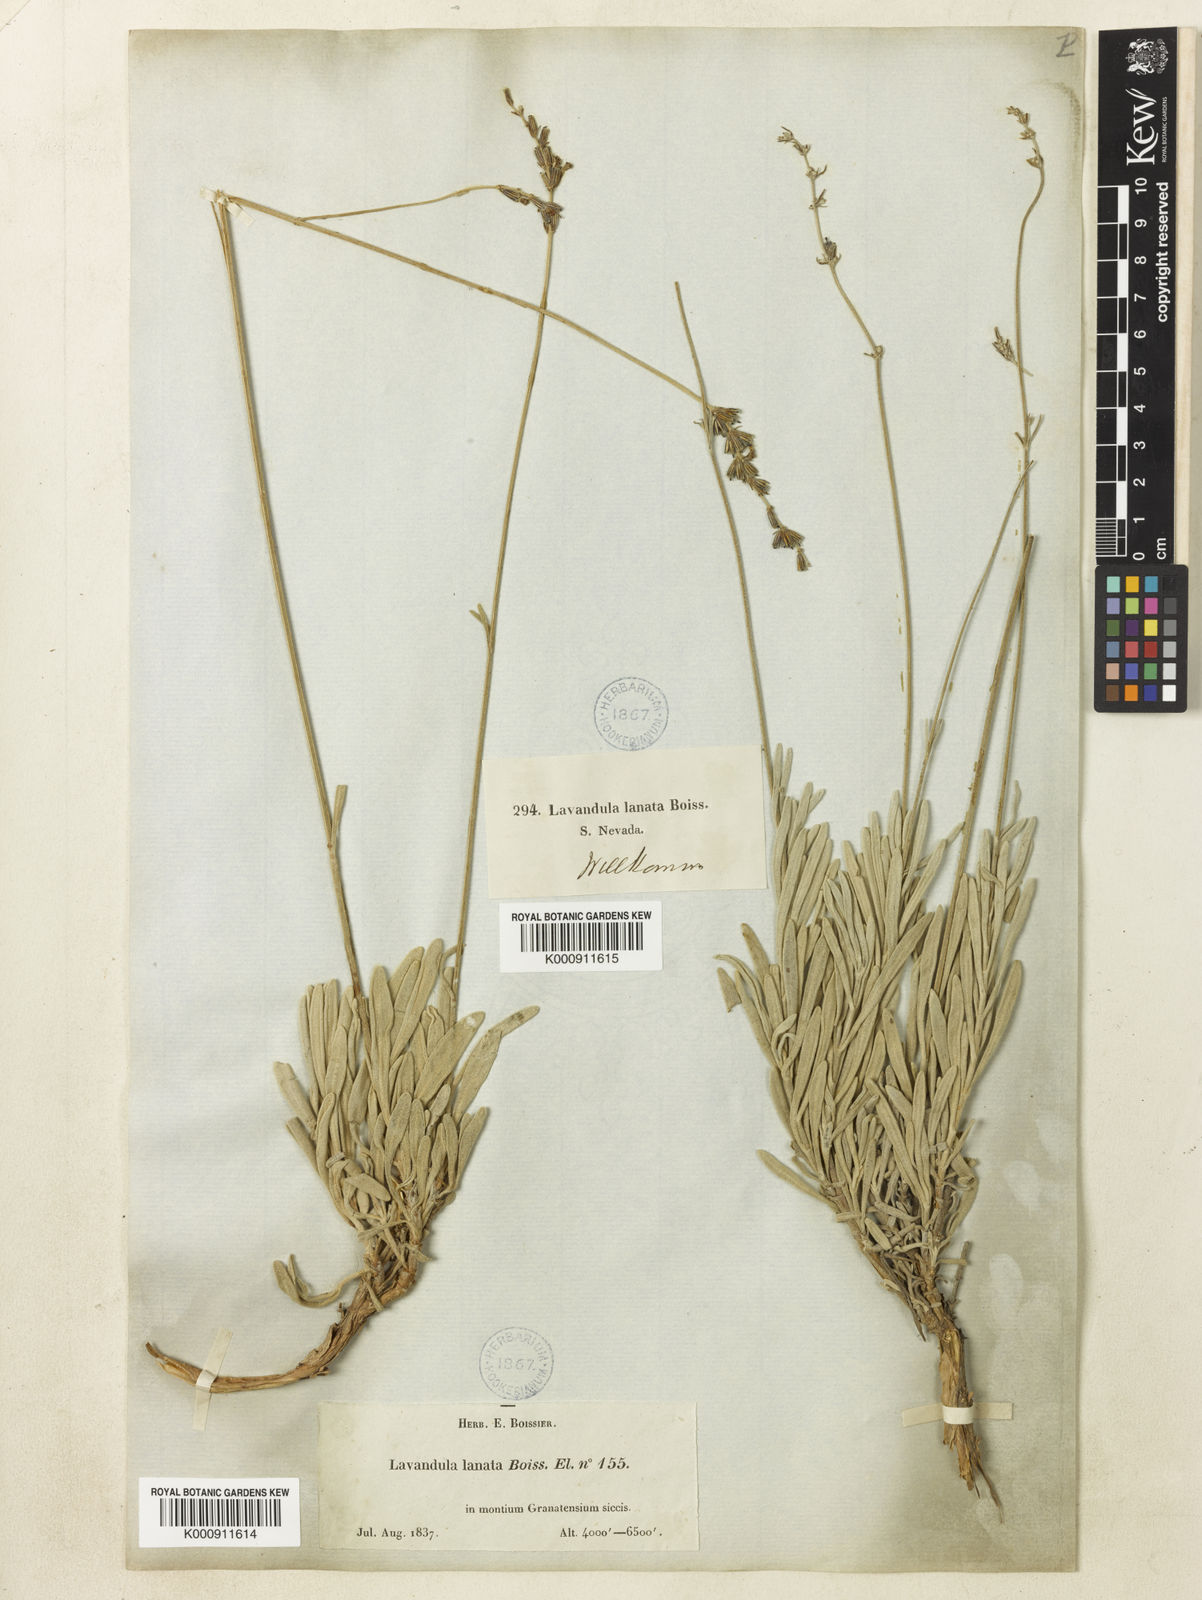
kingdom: Plantae
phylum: Tracheophyta
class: Magnoliopsida
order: Lamiales
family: Lamiaceae
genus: Lavandula
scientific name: Lavandula lanata
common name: Woolly lavender
